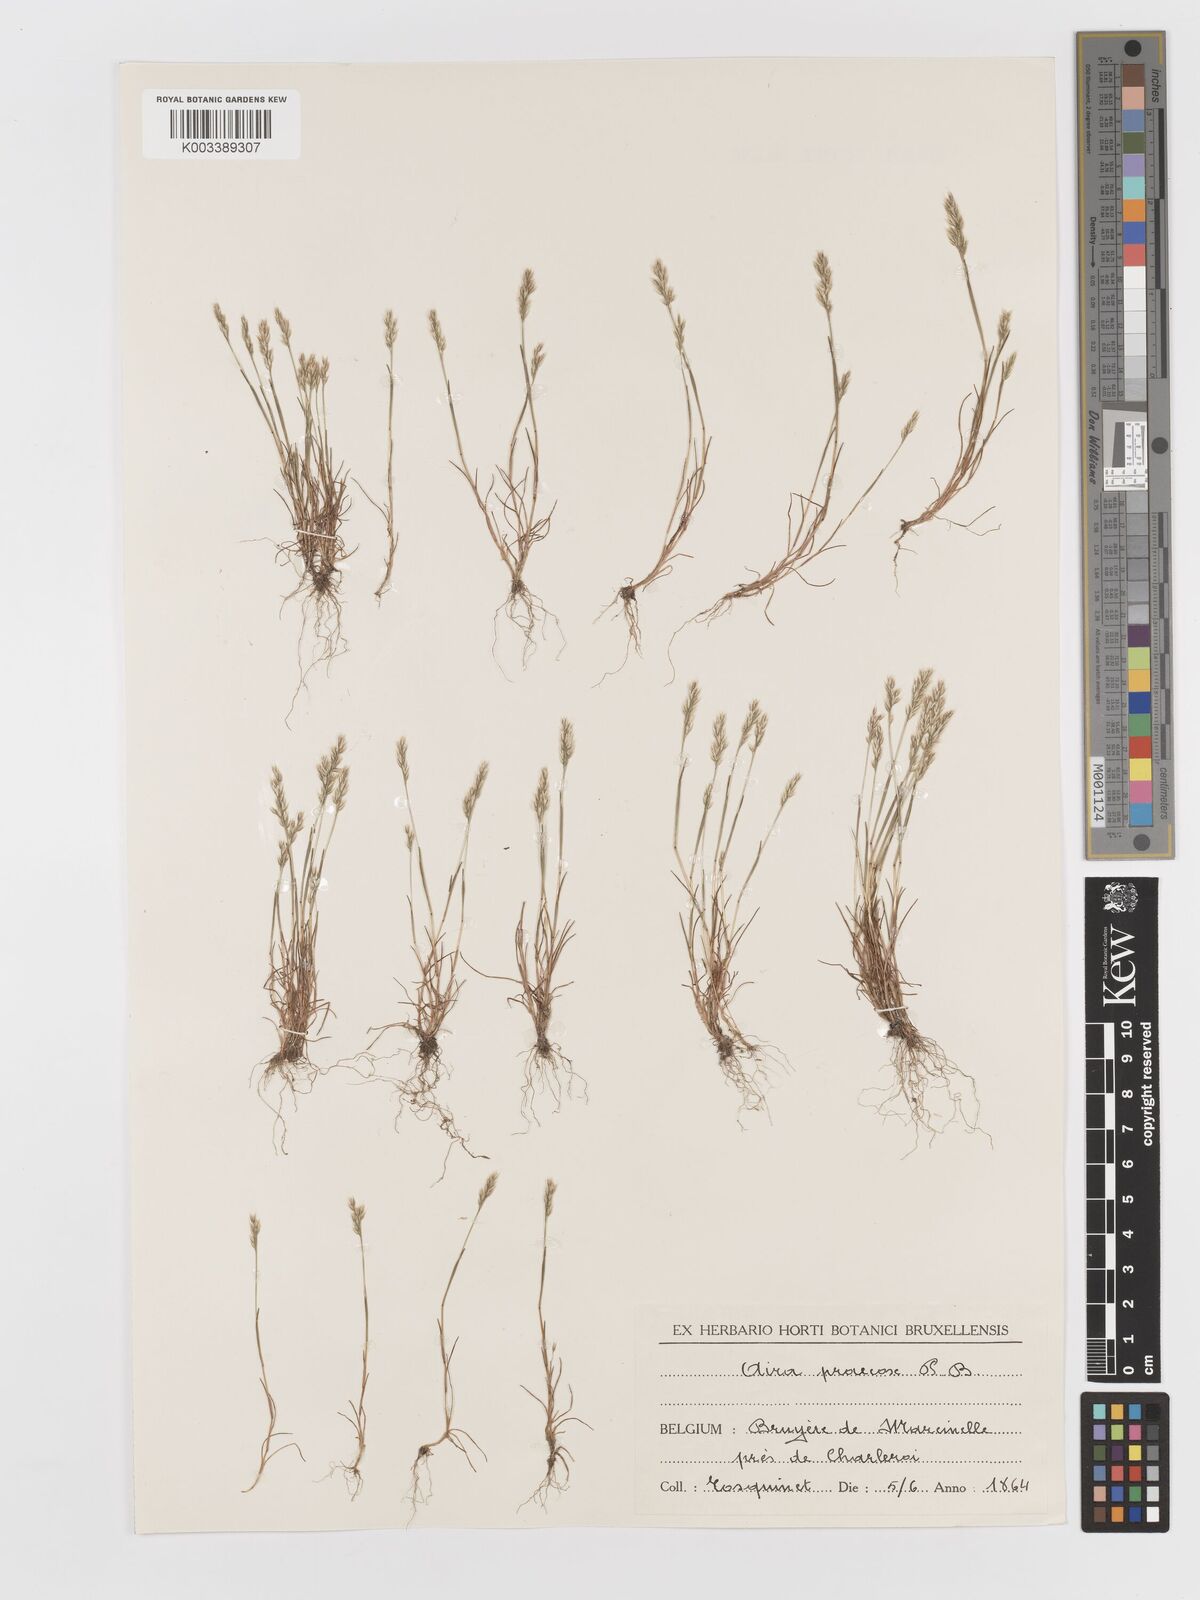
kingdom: Plantae
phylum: Tracheophyta
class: Liliopsida
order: Poales
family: Poaceae
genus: Aira
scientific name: Aira praecox
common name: Early hair-grass
